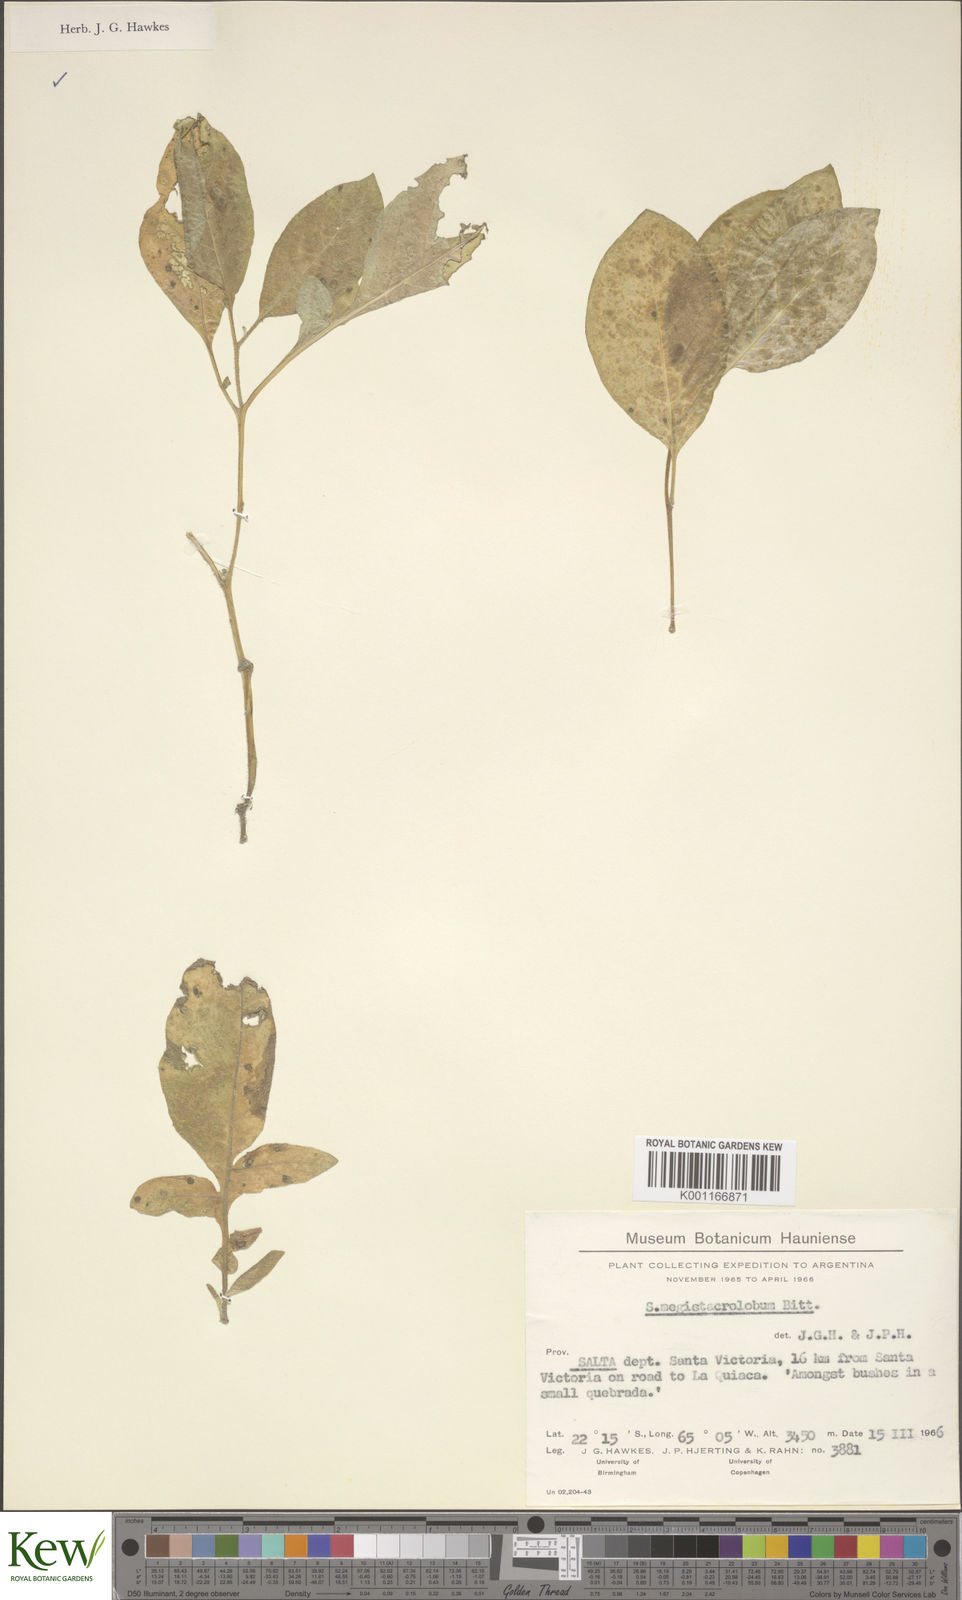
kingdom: Plantae
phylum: Tracheophyta
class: Magnoliopsida
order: Solanales
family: Solanaceae
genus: Solanum
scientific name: Solanum boliviense
